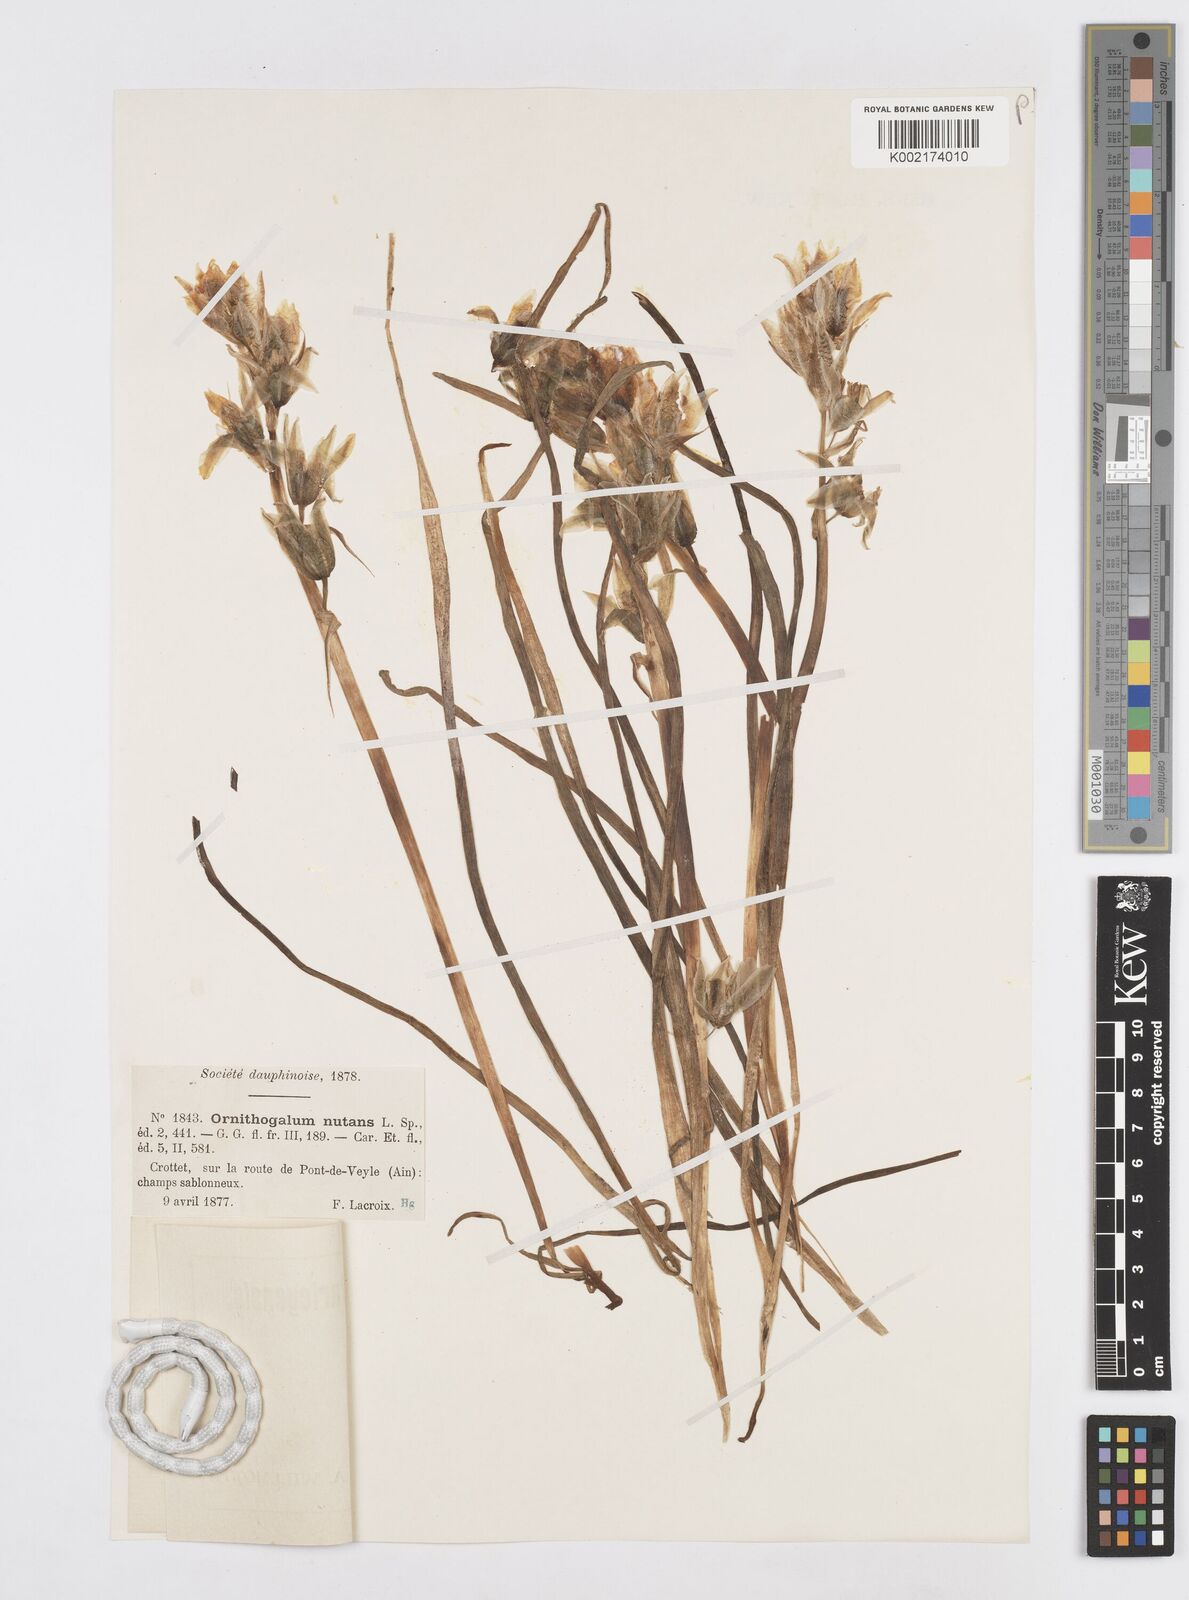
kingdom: Plantae
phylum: Tracheophyta
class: Liliopsida
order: Asparagales
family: Asparagaceae
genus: Ornithogalum
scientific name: Ornithogalum nutans
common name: Drooping star-of-bethlehem
